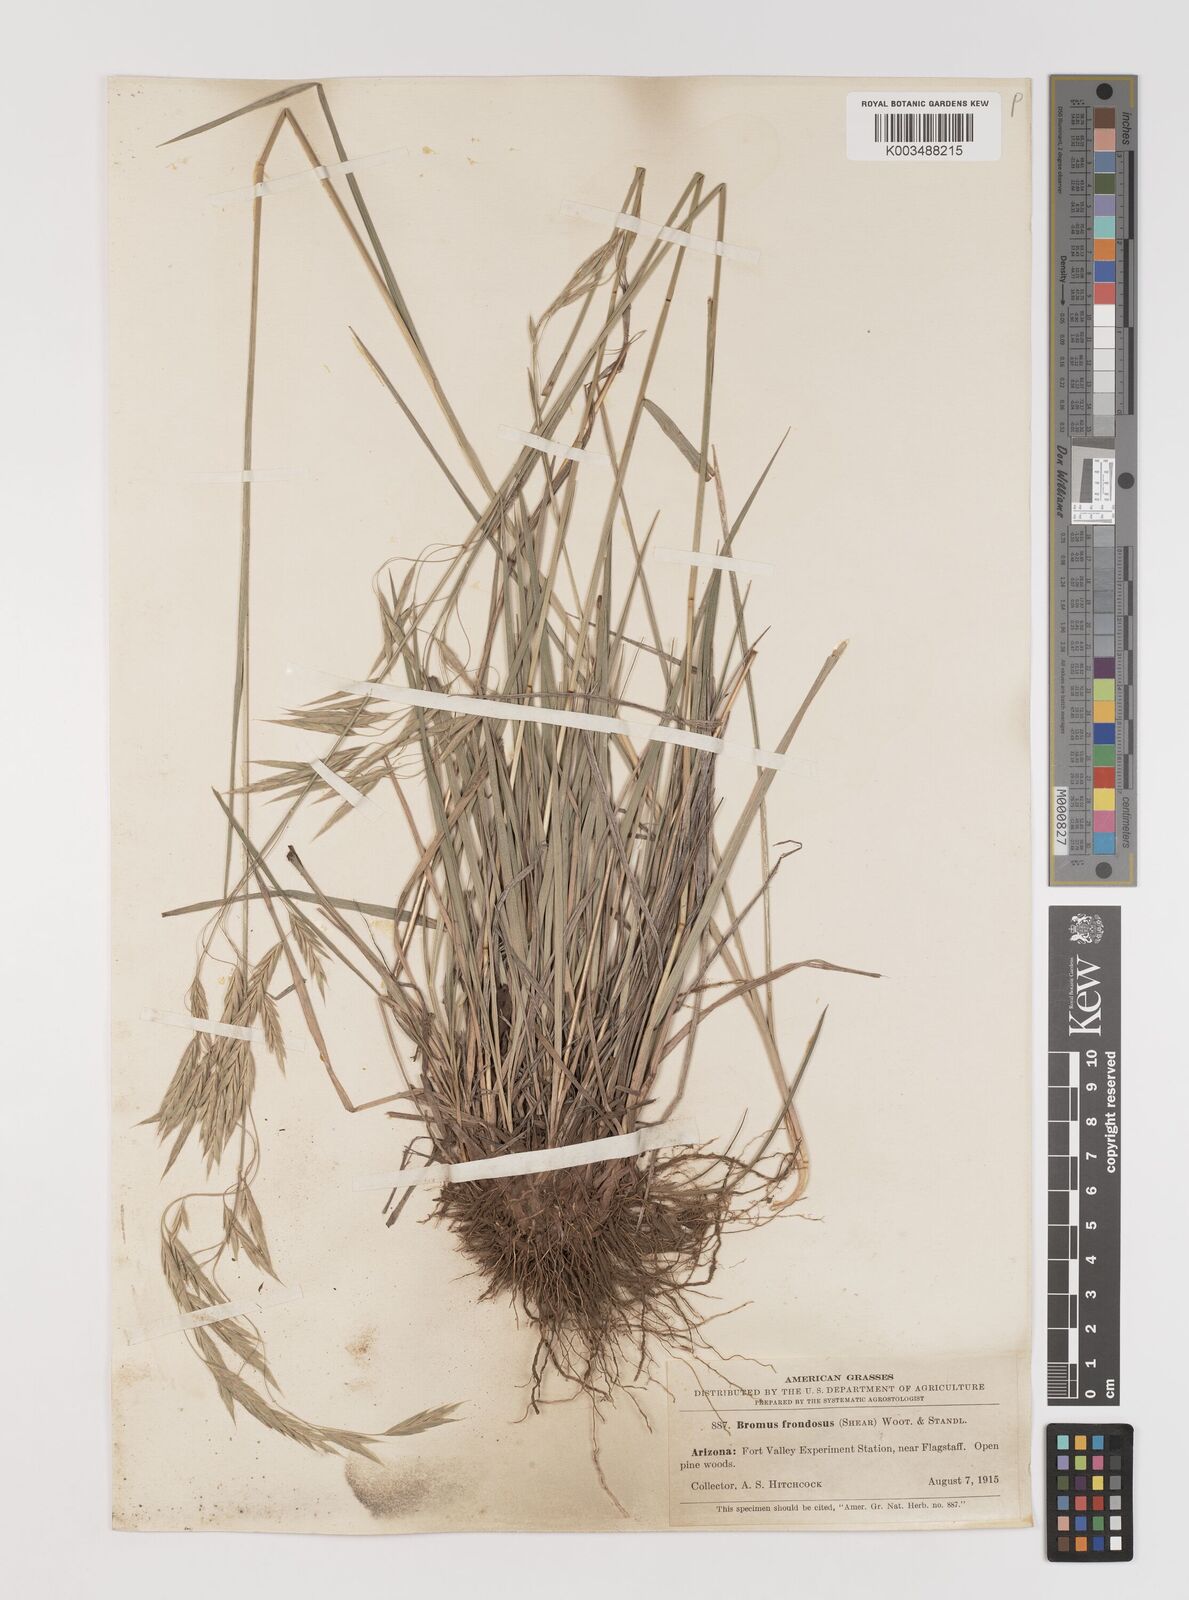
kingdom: Plantae
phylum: Tracheophyta
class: Liliopsida
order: Poales
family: Poaceae
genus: Bromus
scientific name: Bromus frondosus
